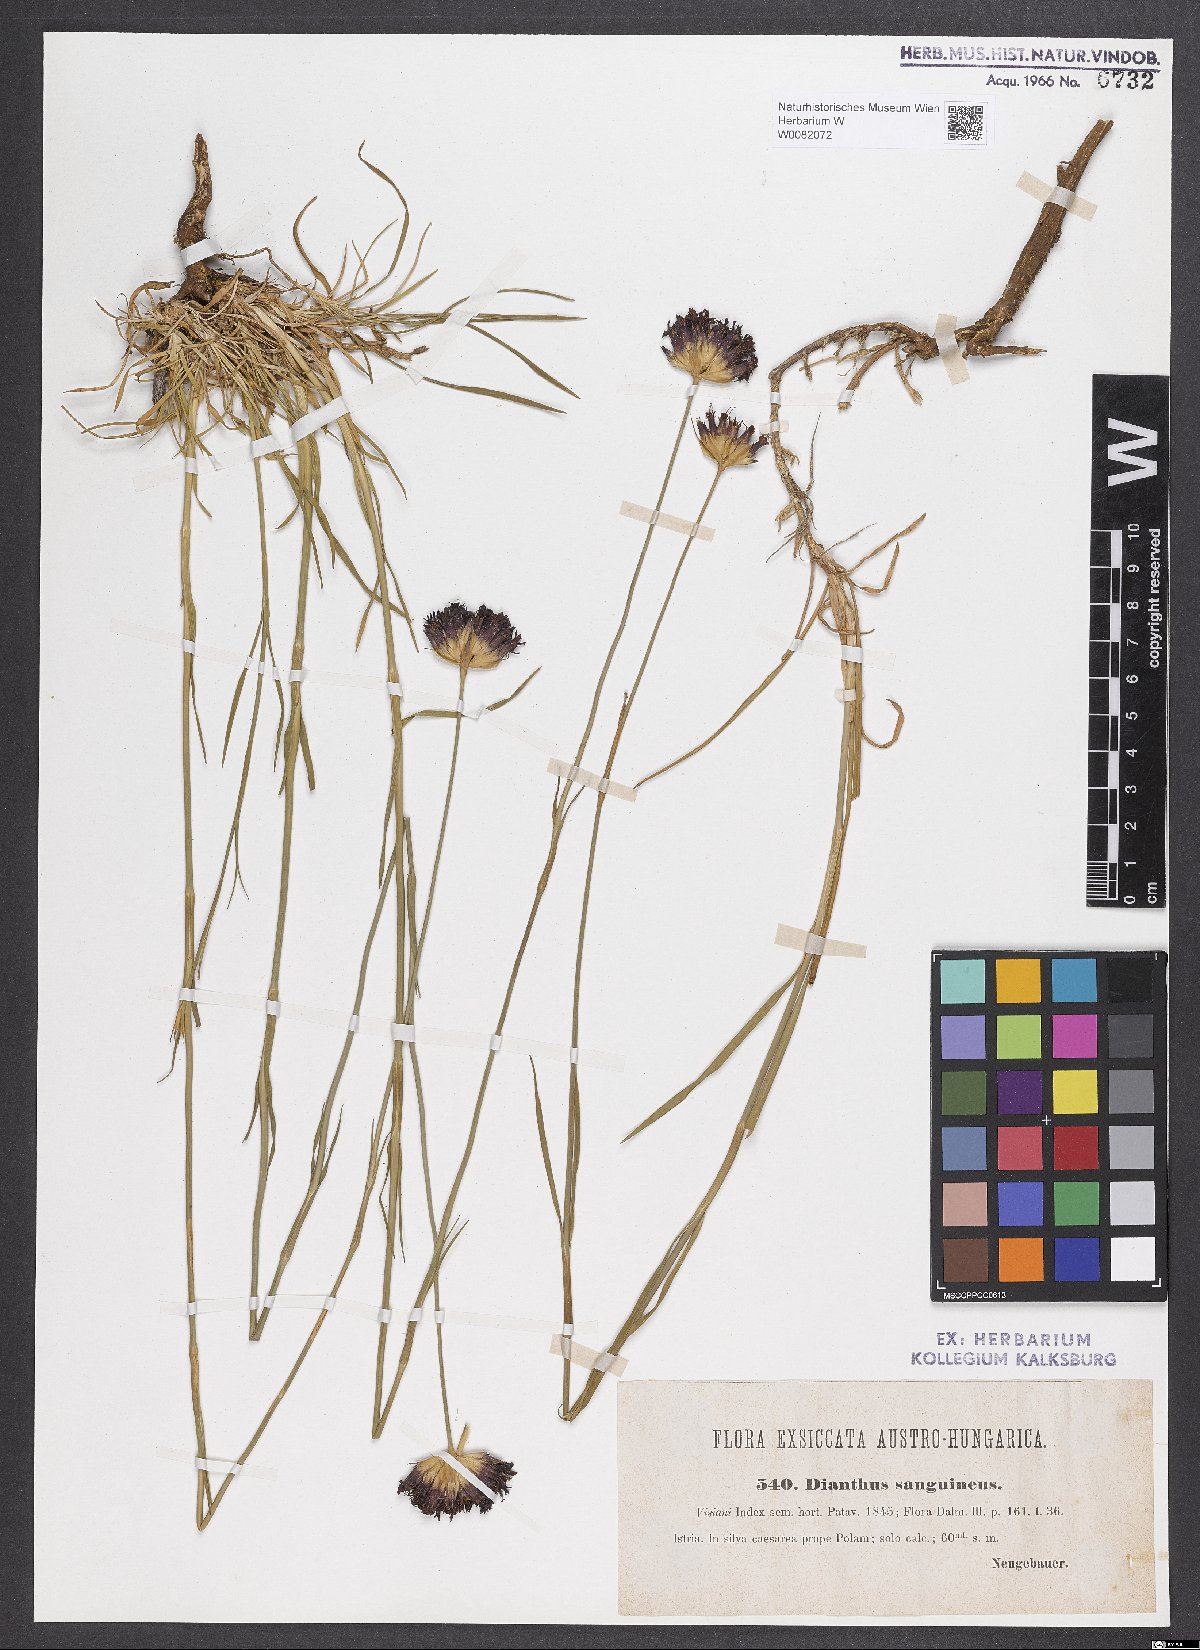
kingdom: Plantae
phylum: Tracheophyta
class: Magnoliopsida
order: Caryophyllales
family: Caryophyllaceae
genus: Dianthus
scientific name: Dianthus carthusianorum
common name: Carthusian pink
